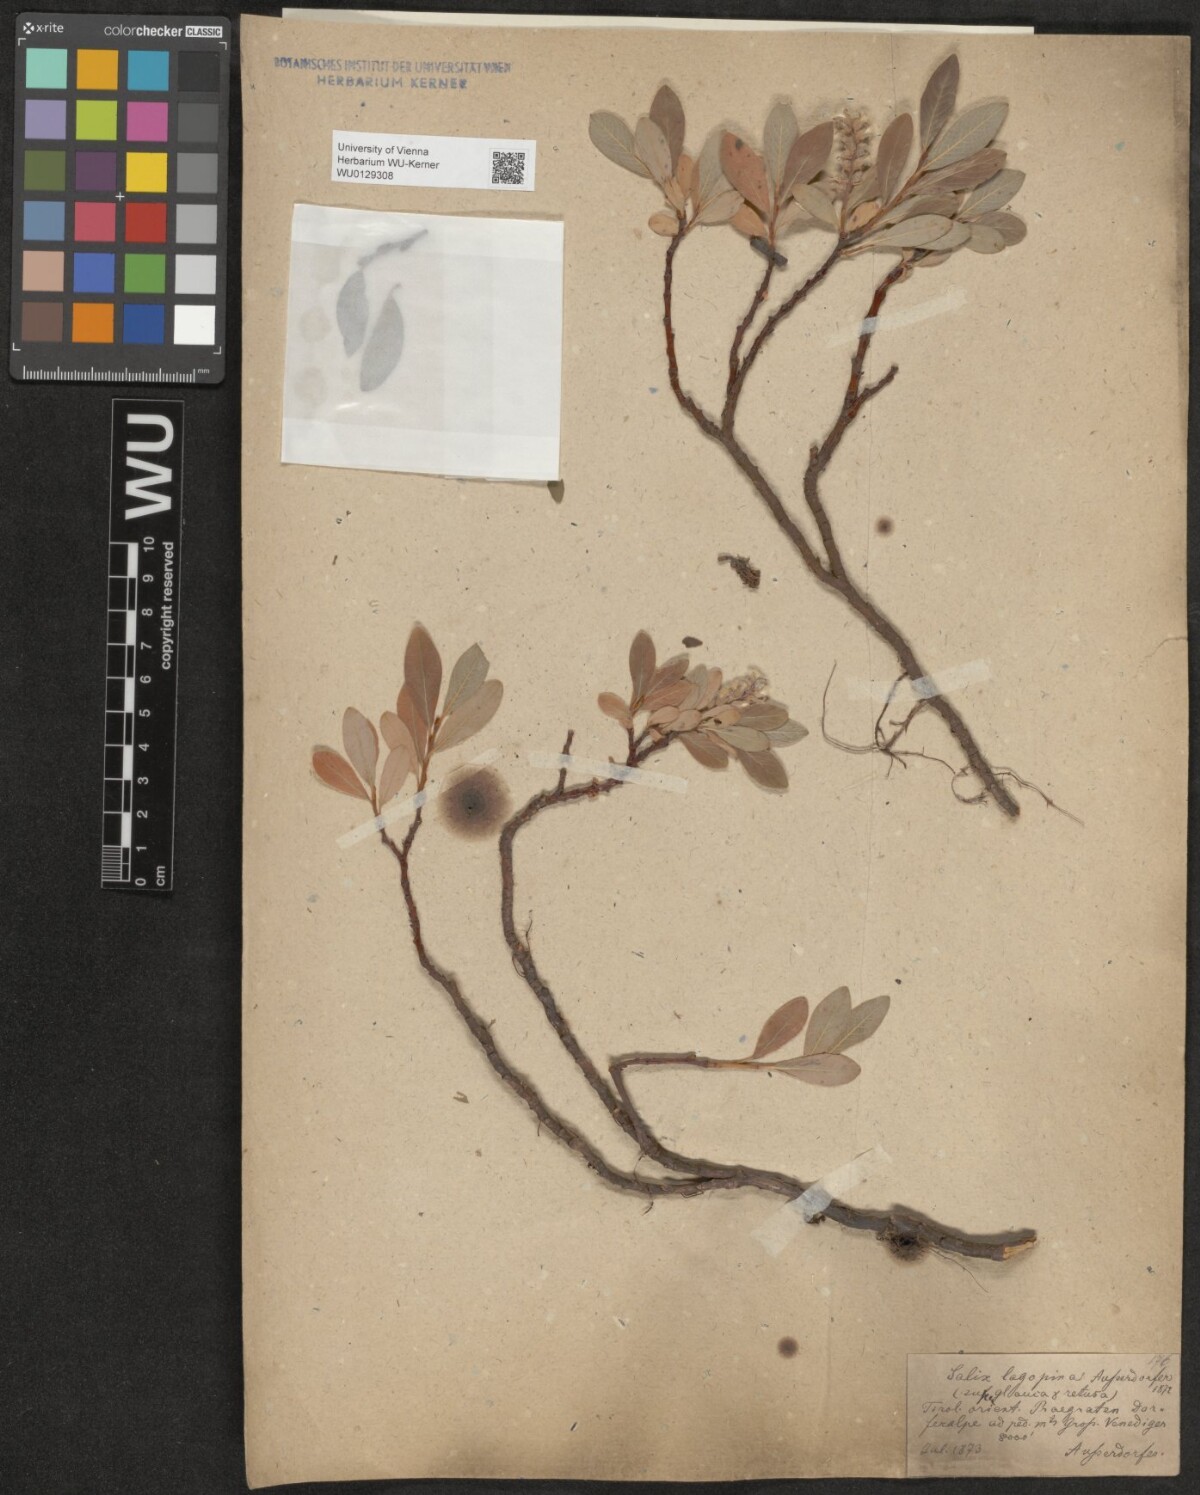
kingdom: Plantae
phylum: Tracheophyta
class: Magnoliopsida
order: Malpighiales
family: Salicaceae
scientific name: Salicaceae
